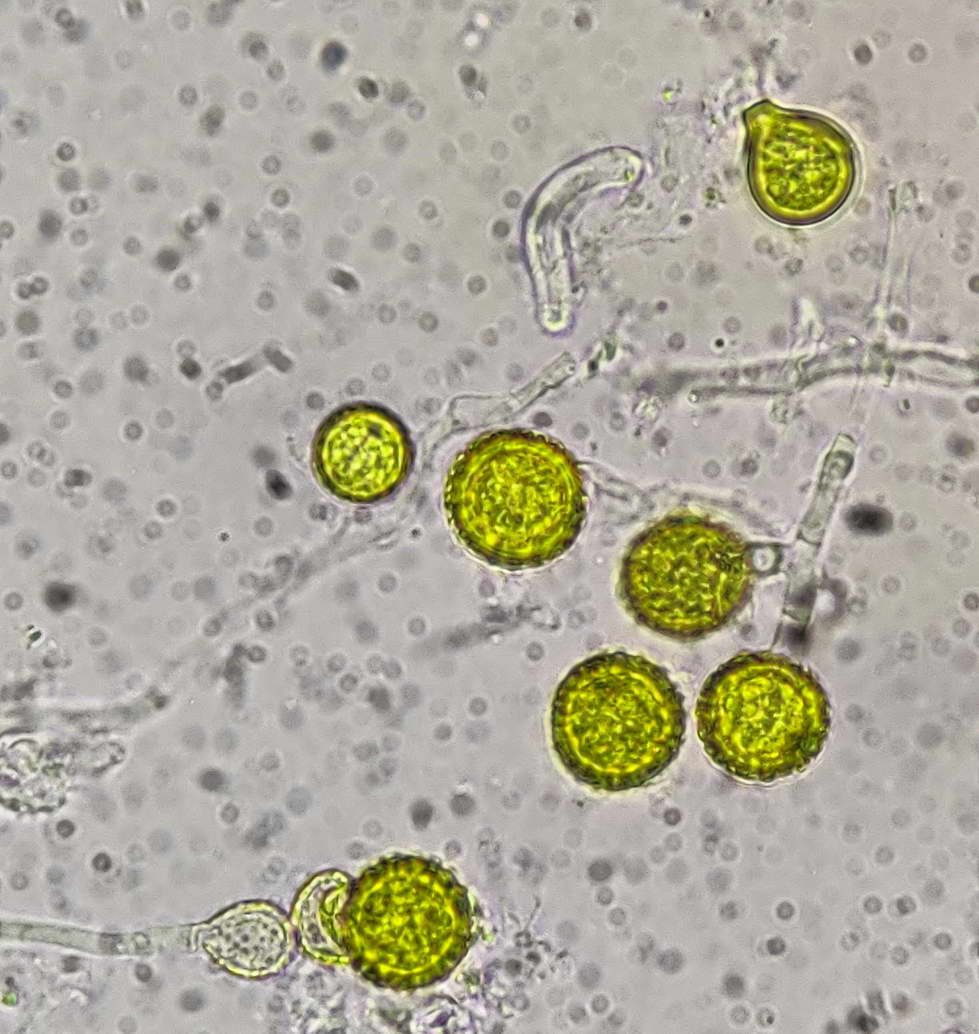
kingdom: Fungi
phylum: Ascomycota
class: Sordariomycetes
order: Hypocreales
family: Hypocreaceae
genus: Hypomyces
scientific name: Hypomyces chrysospermus
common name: gulskimmel-snylteskorpe
